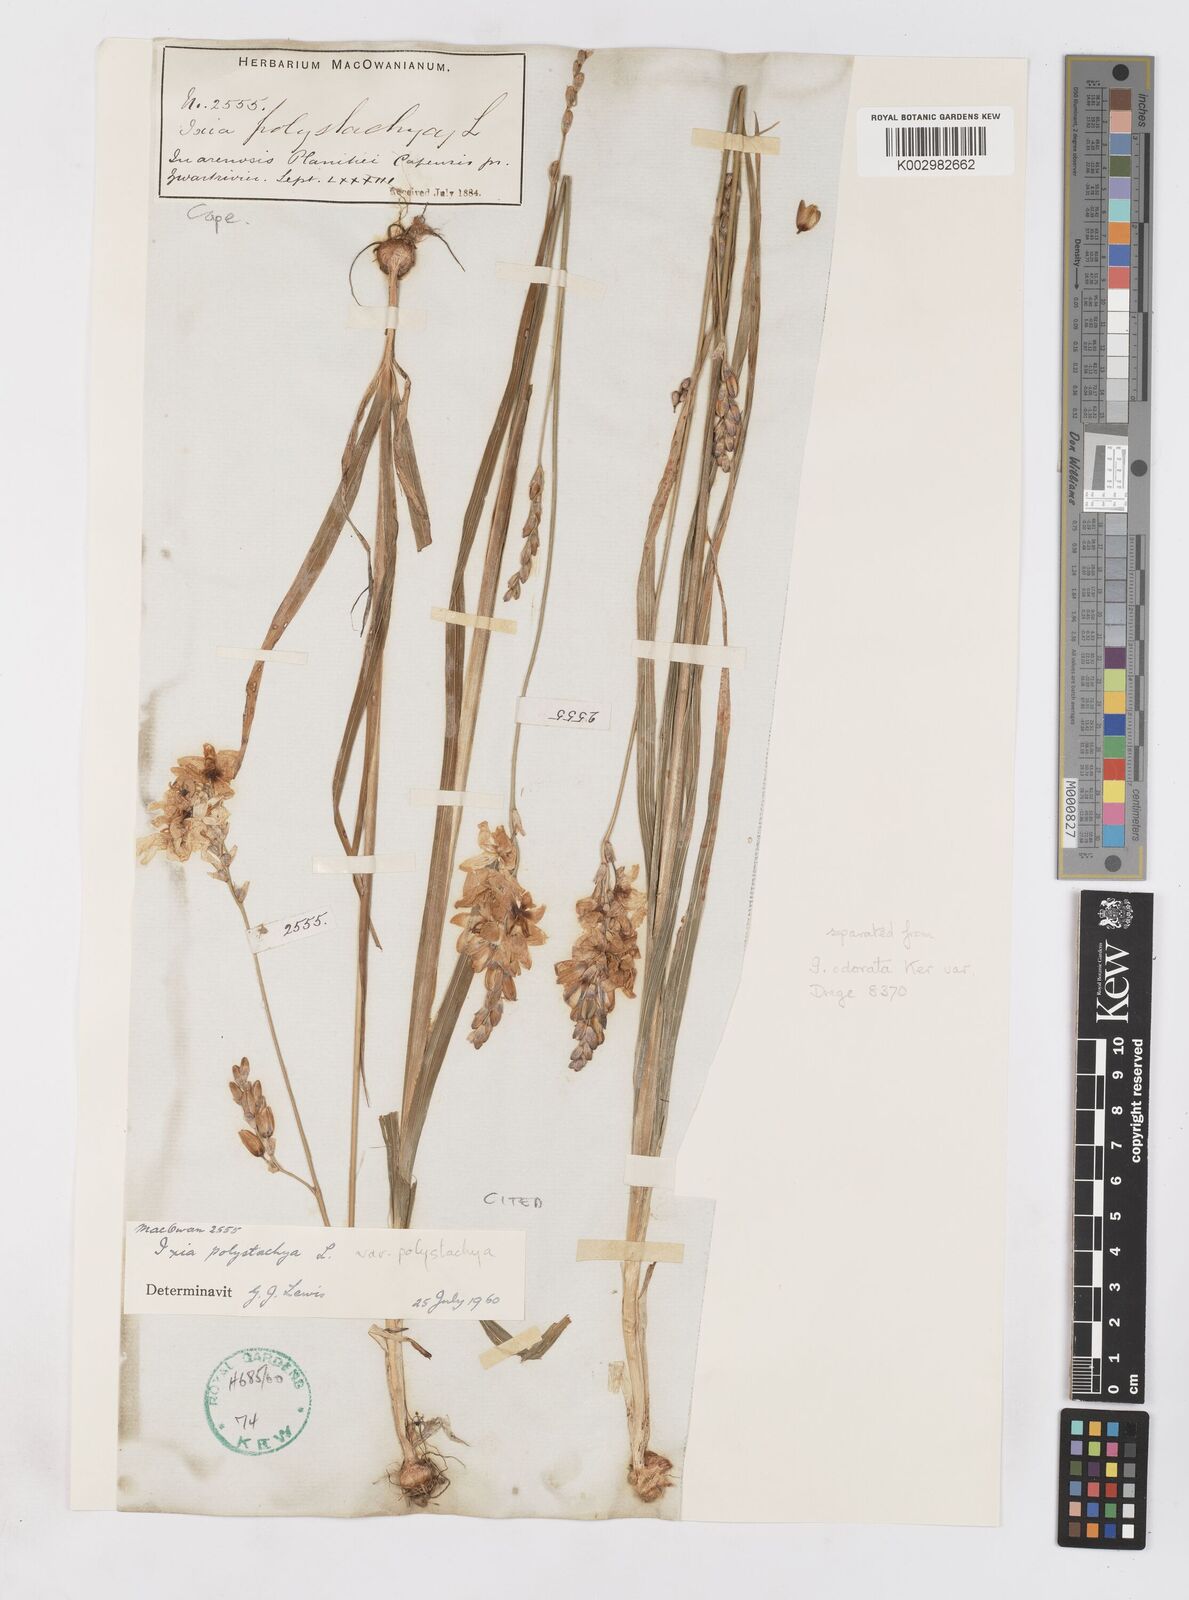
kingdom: Plantae
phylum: Tracheophyta
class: Liliopsida
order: Asparagales
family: Iridaceae
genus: Ixia
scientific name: Ixia polystachya
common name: White-and-yellow-flower cornlily
